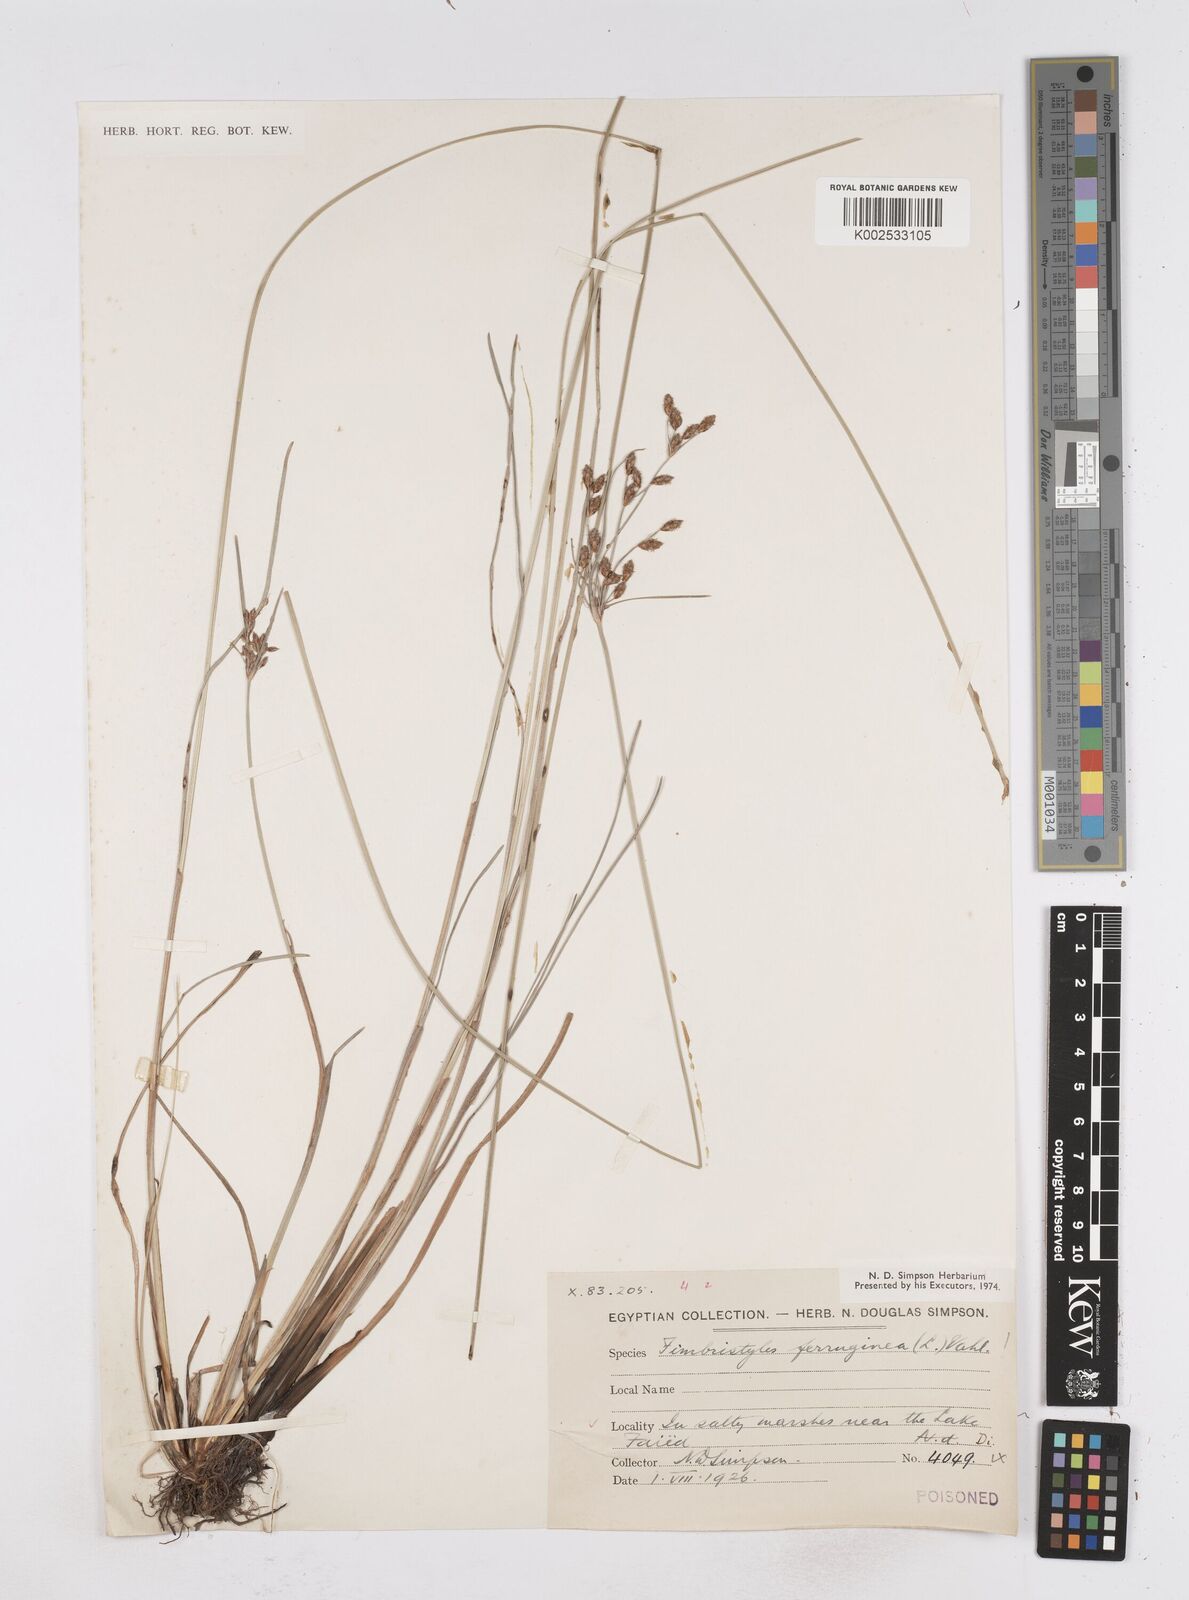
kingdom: Plantae
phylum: Tracheophyta
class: Liliopsida
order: Poales
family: Cyperaceae
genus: Fimbristylis
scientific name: Fimbristylis ferruginea
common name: West indian fimbry
